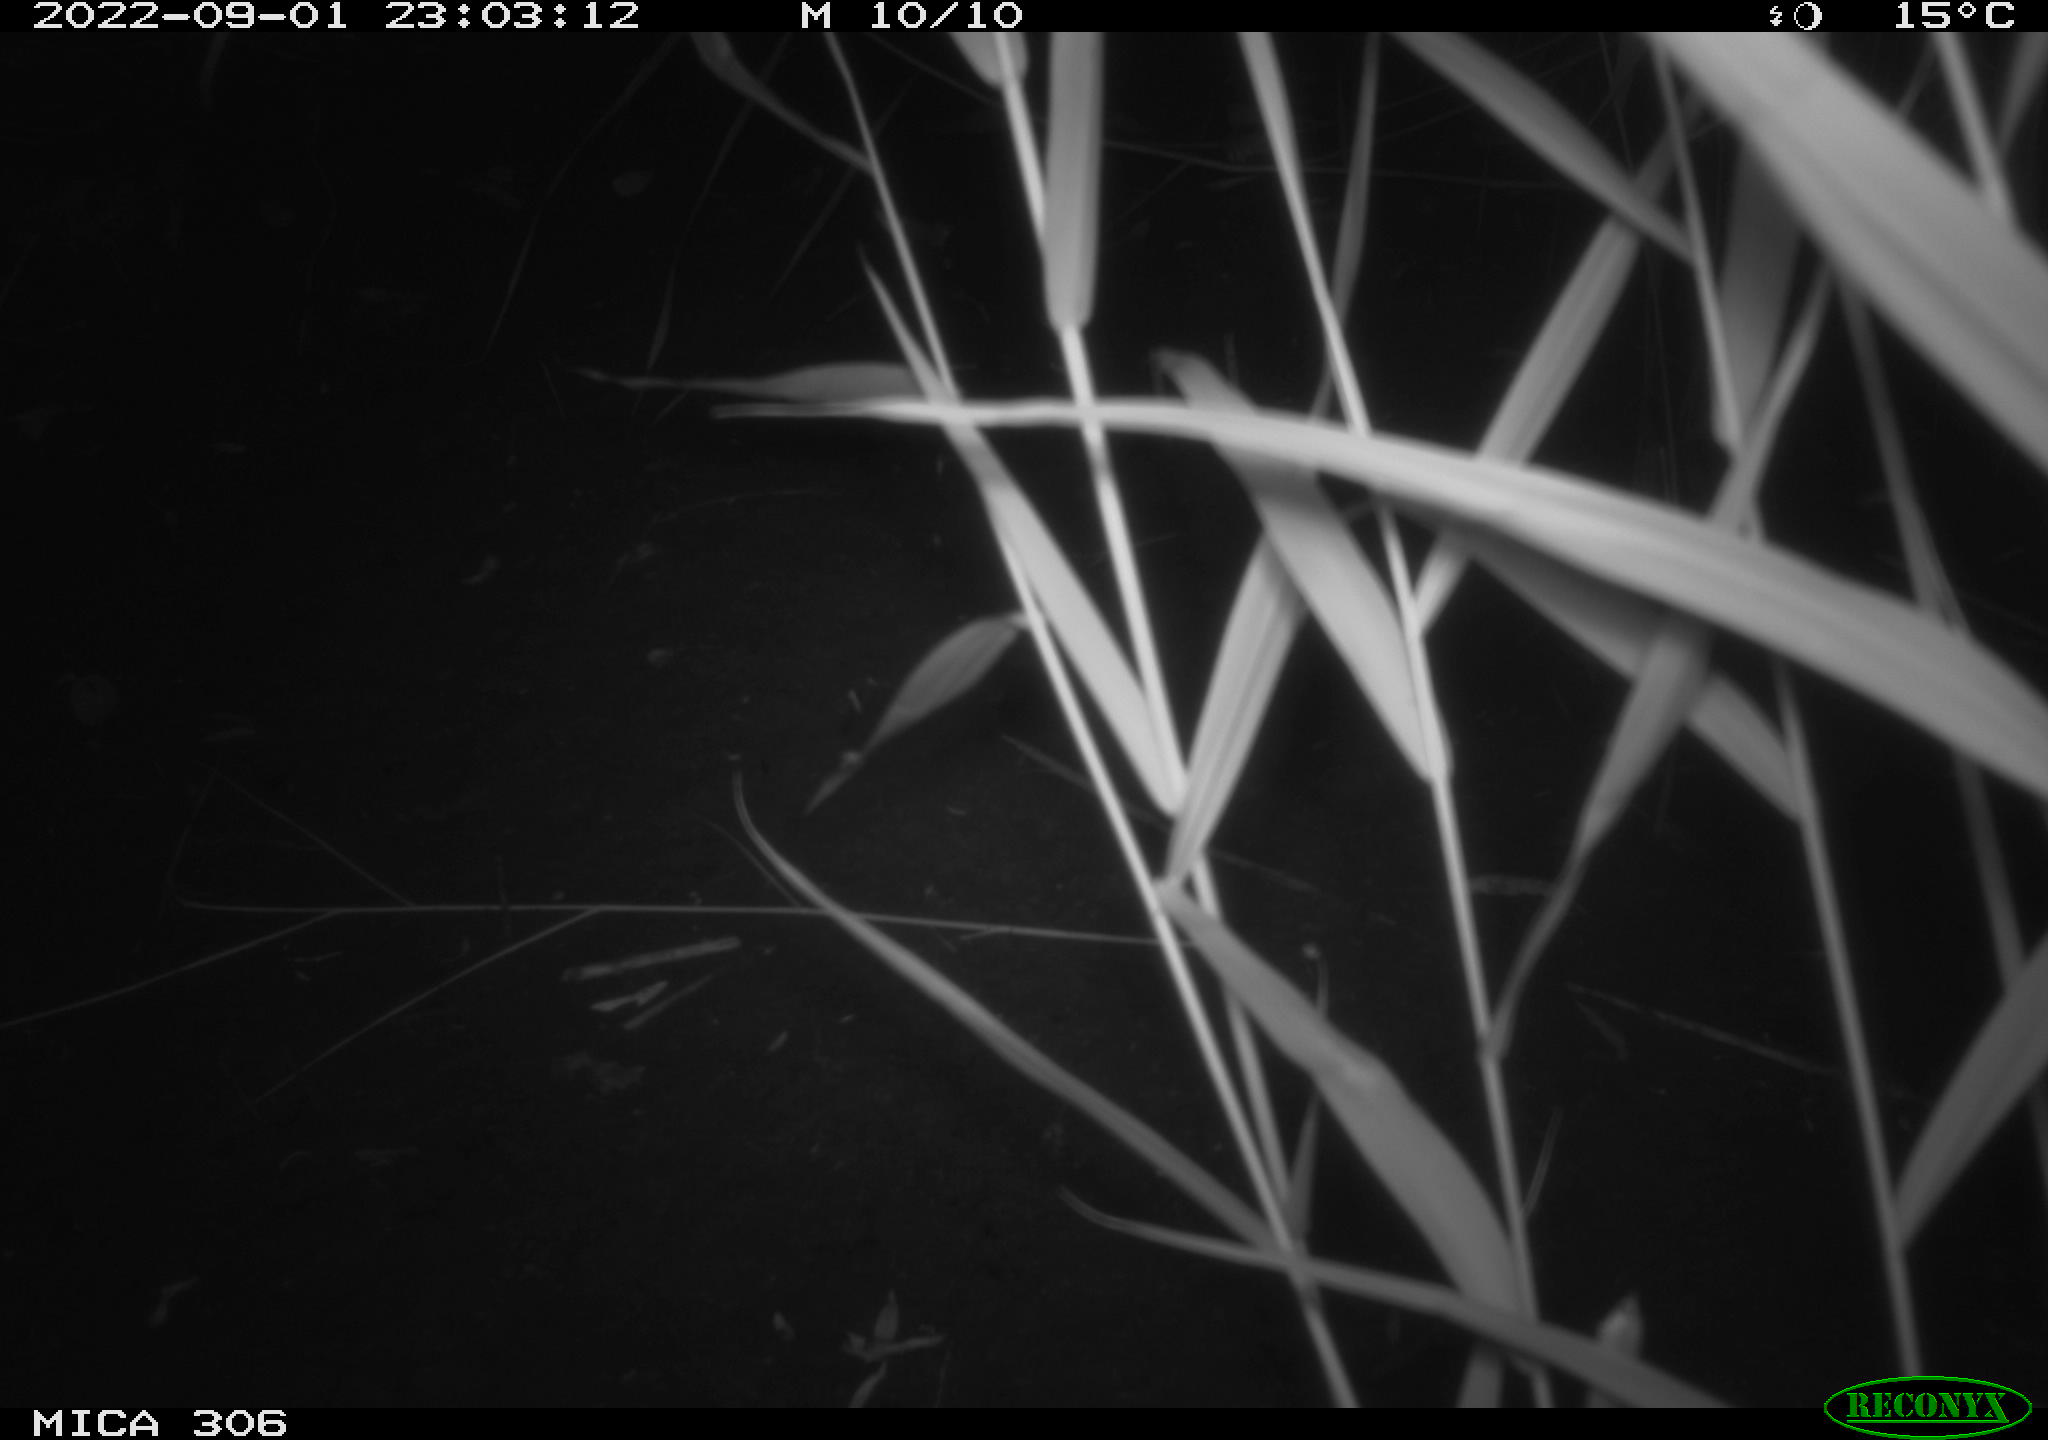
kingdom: Animalia
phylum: Chordata
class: Mammalia
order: Rodentia
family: Muridae
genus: Rattus
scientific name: Rattus norvegicus
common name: Brown rat
